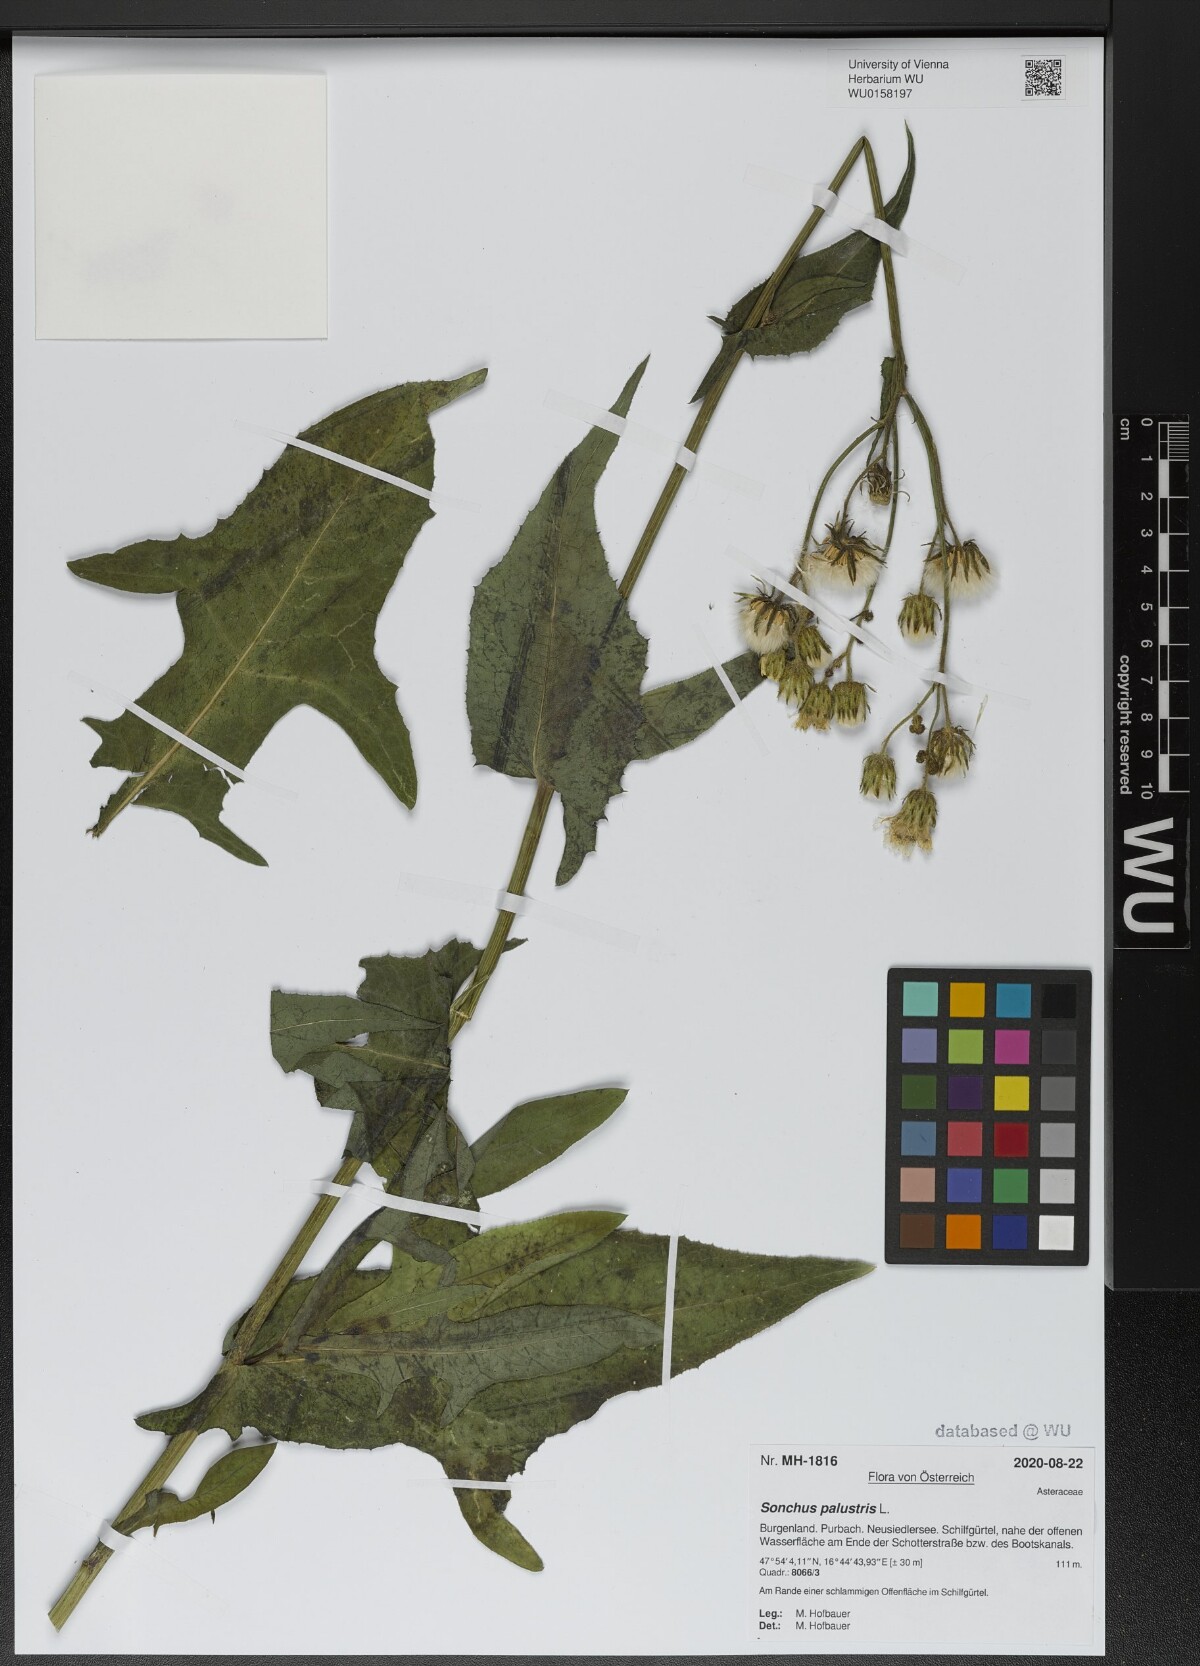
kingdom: Plantae
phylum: Tracheophyta
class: Magnoliopsida
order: Asterales
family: Asteraceae
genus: Sonchus
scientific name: Sonchus palustris
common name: Marsh sow-thistle
